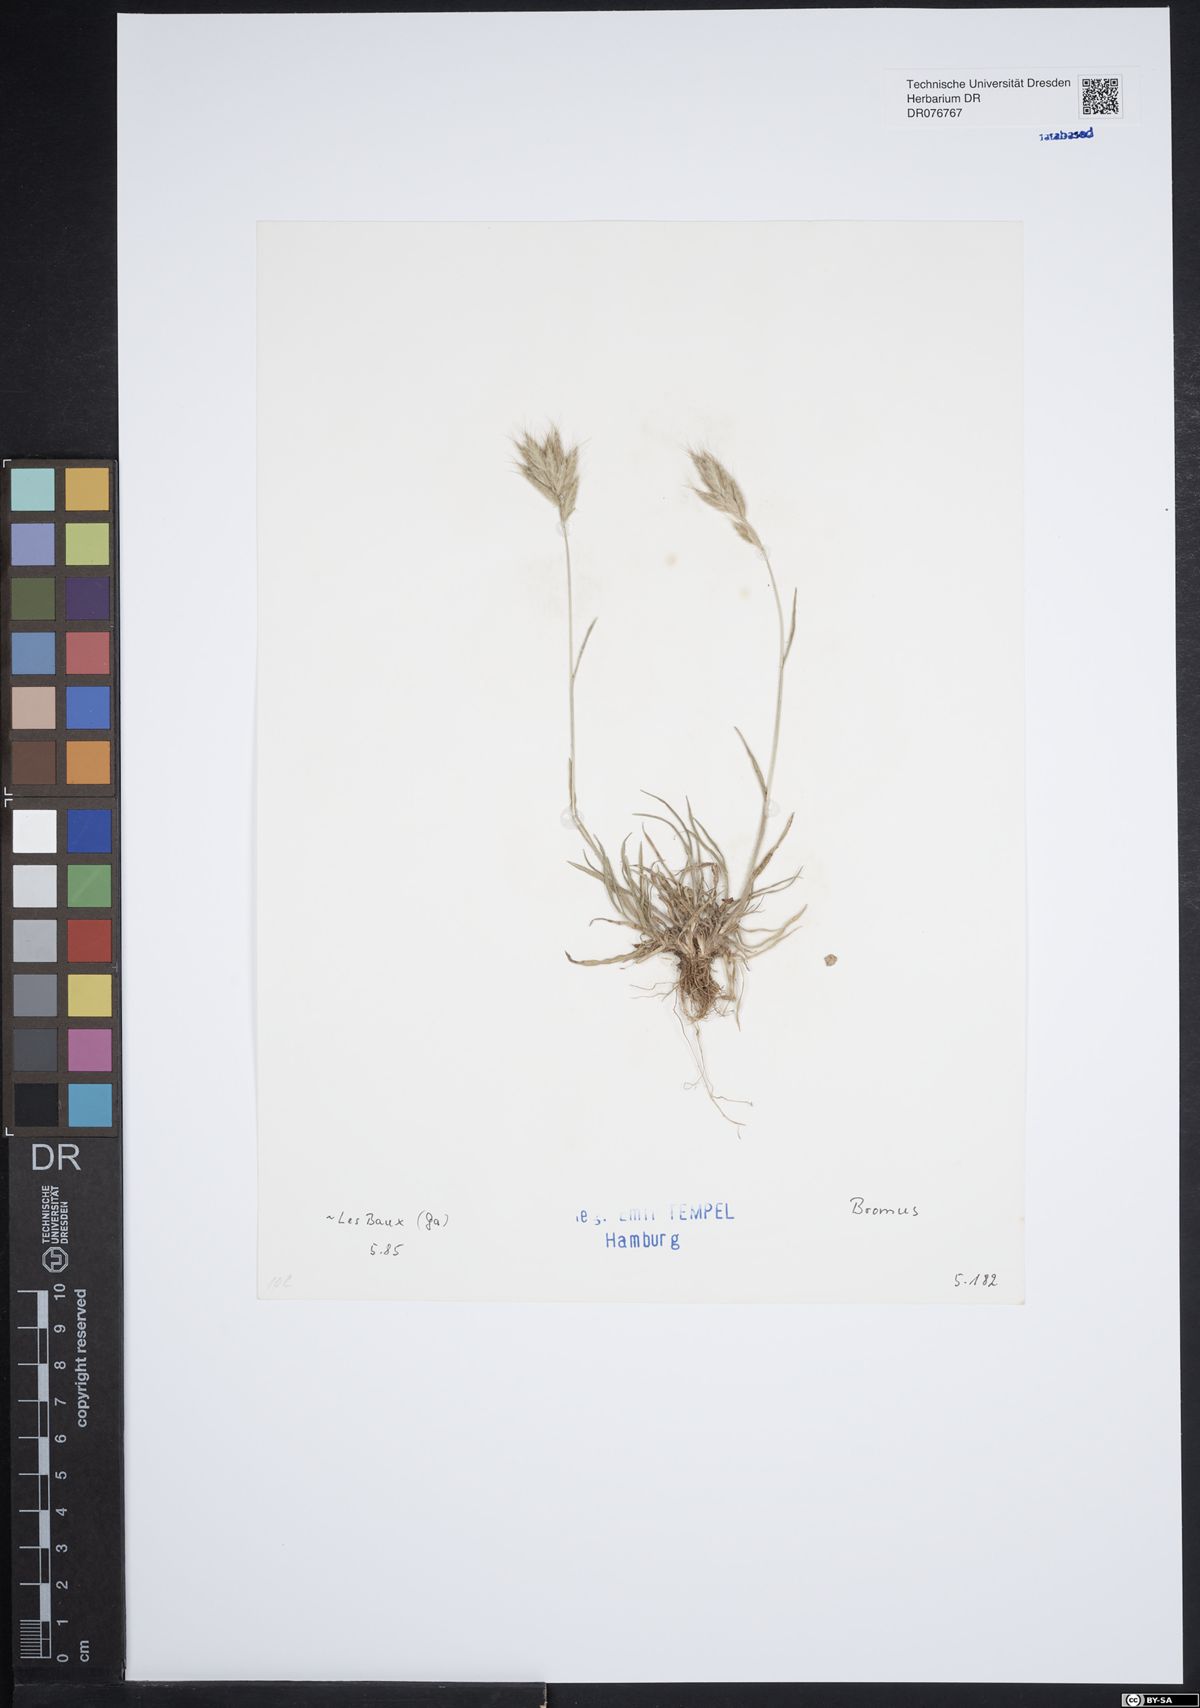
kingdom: Plantae
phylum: Tracheophyta
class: Liliopsida
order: Poales
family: Poaceae
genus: Bromus
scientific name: Bromus
